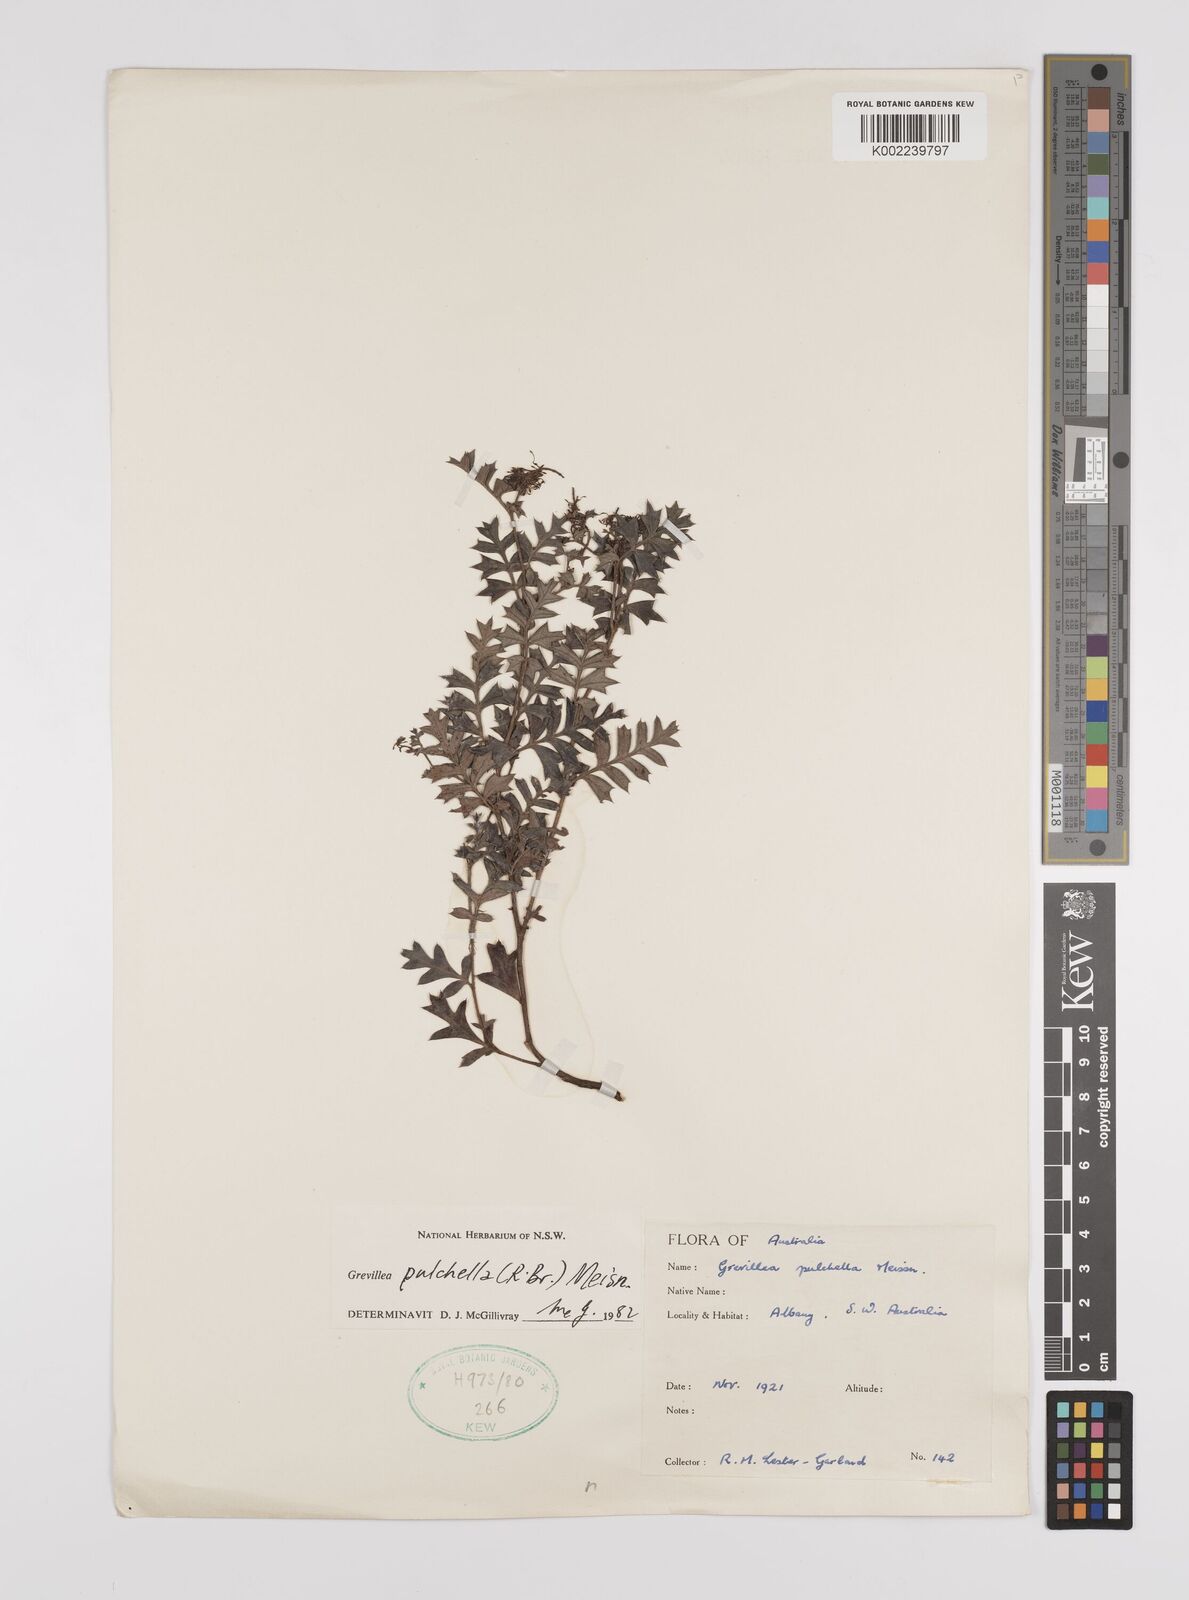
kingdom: Plantae
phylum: Tracheophyta
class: Magnoliopsida
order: Proteales
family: Proteaceae
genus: Grevillea
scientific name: Grevillea pulchella
